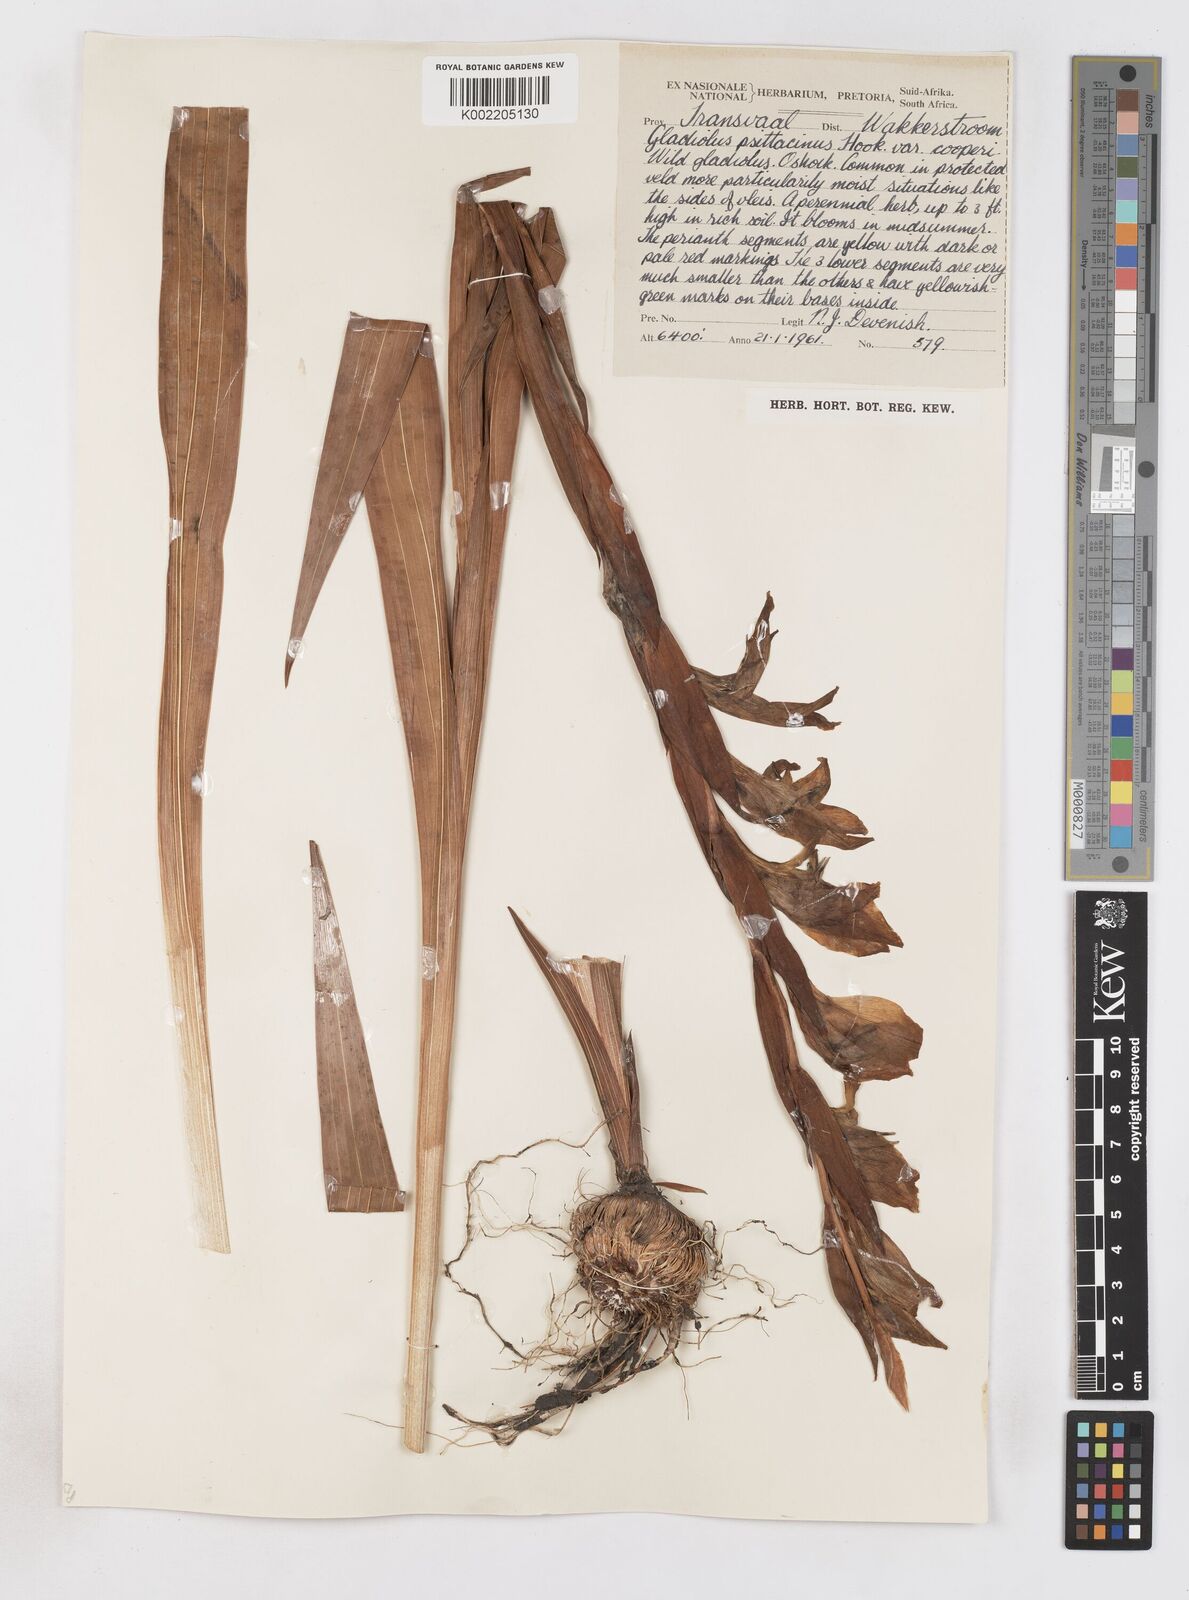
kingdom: Plantae
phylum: Tracheophyta
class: Liliopsida
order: Asparagales
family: Iridaceae
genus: Gladiolus
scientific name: Gladiolus dalenii
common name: Cornflag
